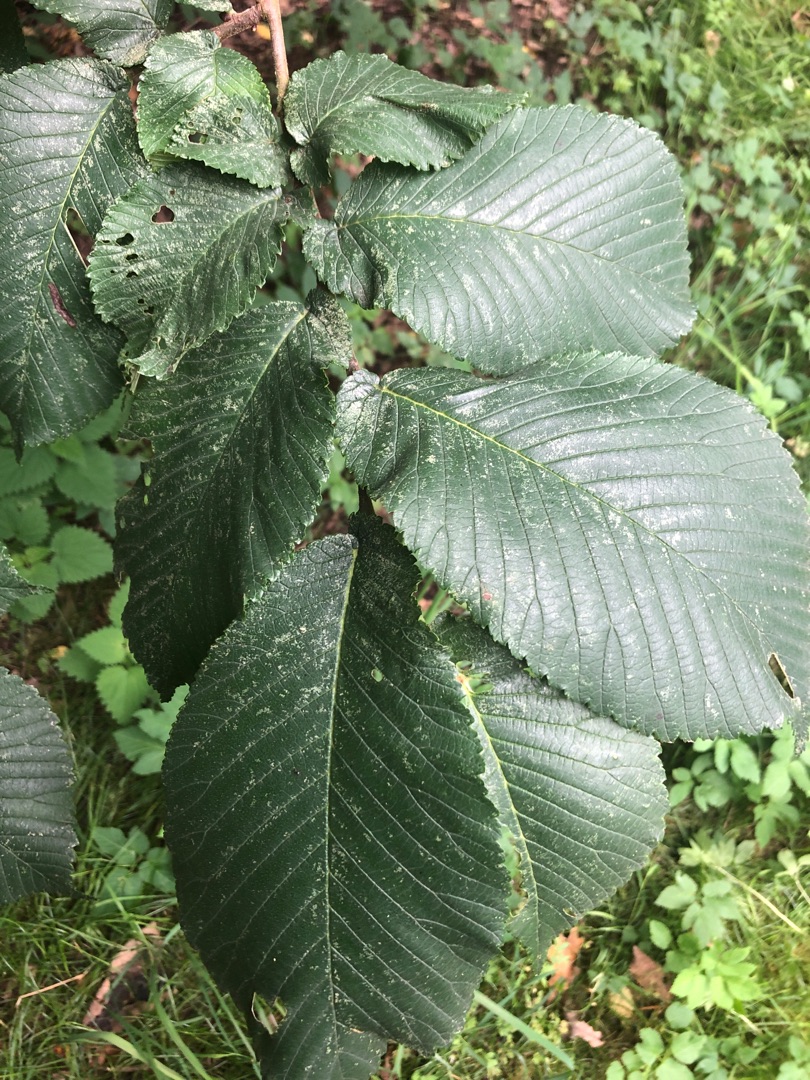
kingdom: Plantae
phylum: Tracheophyta
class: Magnoliopsida
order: Rosales
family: Ulmaceae
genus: Ulmus
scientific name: Ulmus glabra
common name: Skov-elm/storbladet elm
